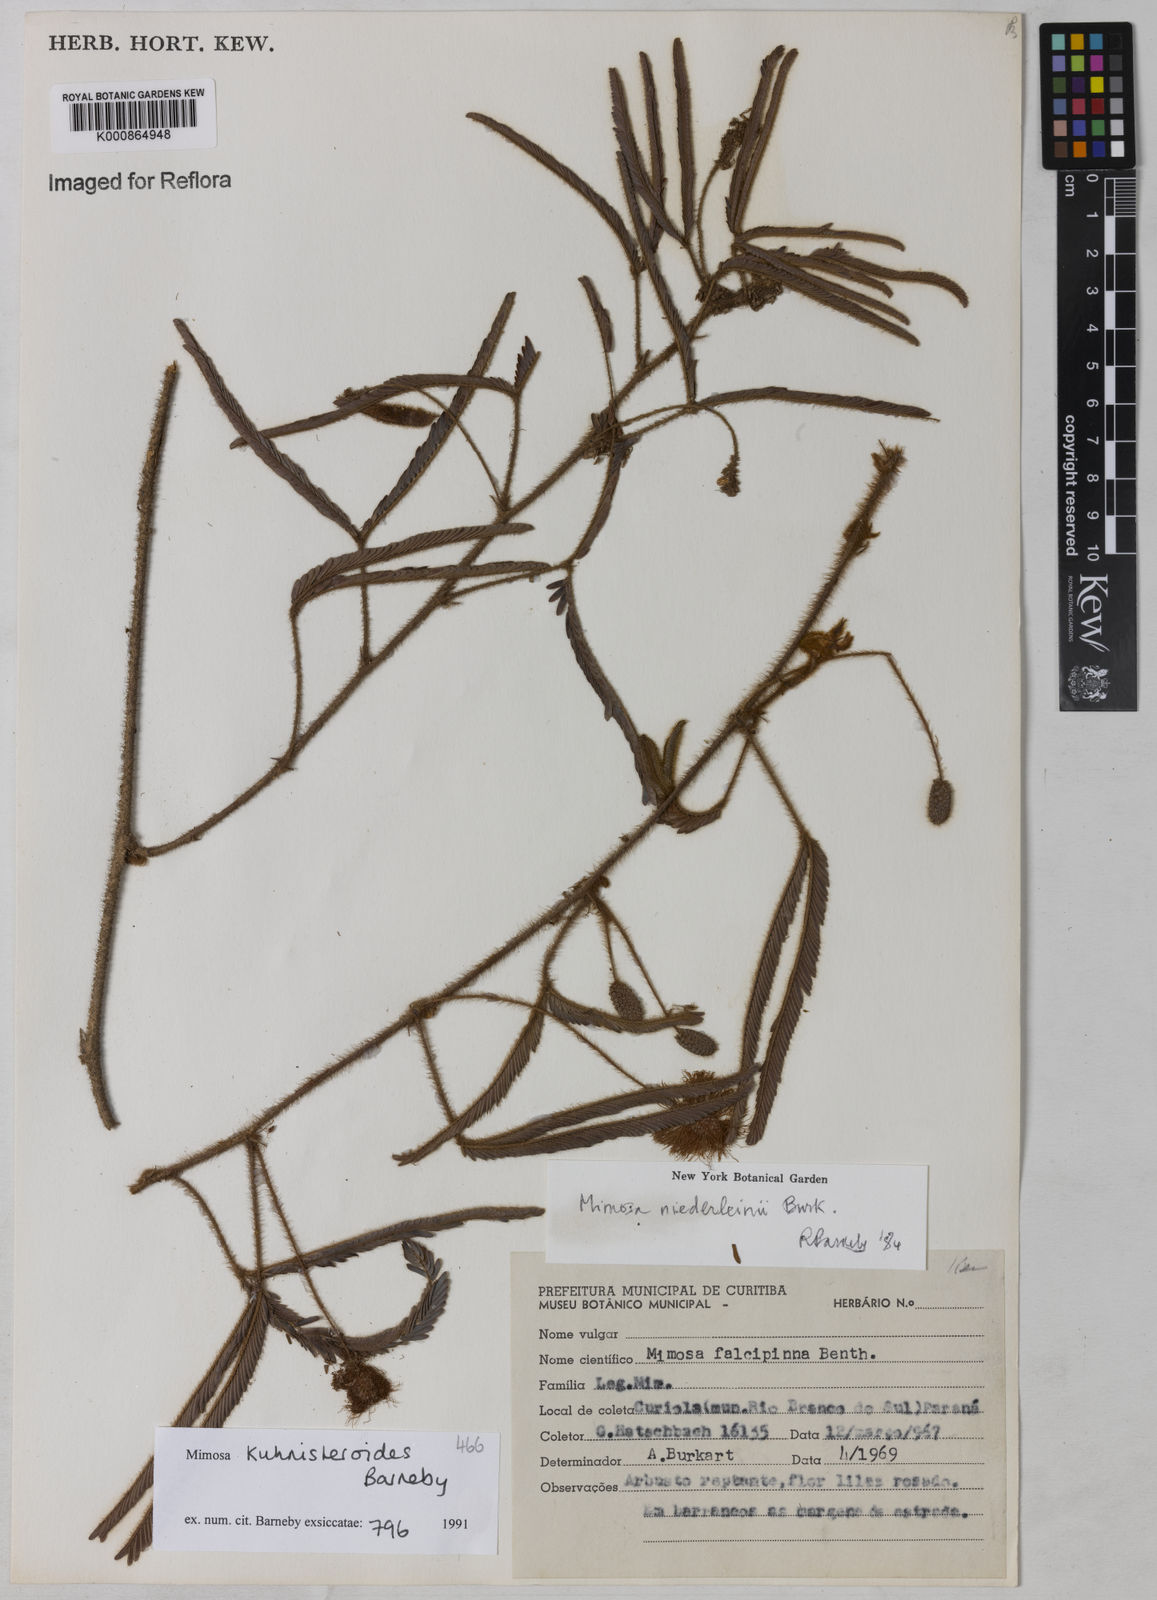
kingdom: Plantae
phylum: Tracheophyta
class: Magnoliopsida
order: Fabales
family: Fabaceae
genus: Mimosa
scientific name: Mimosa niederleinii
